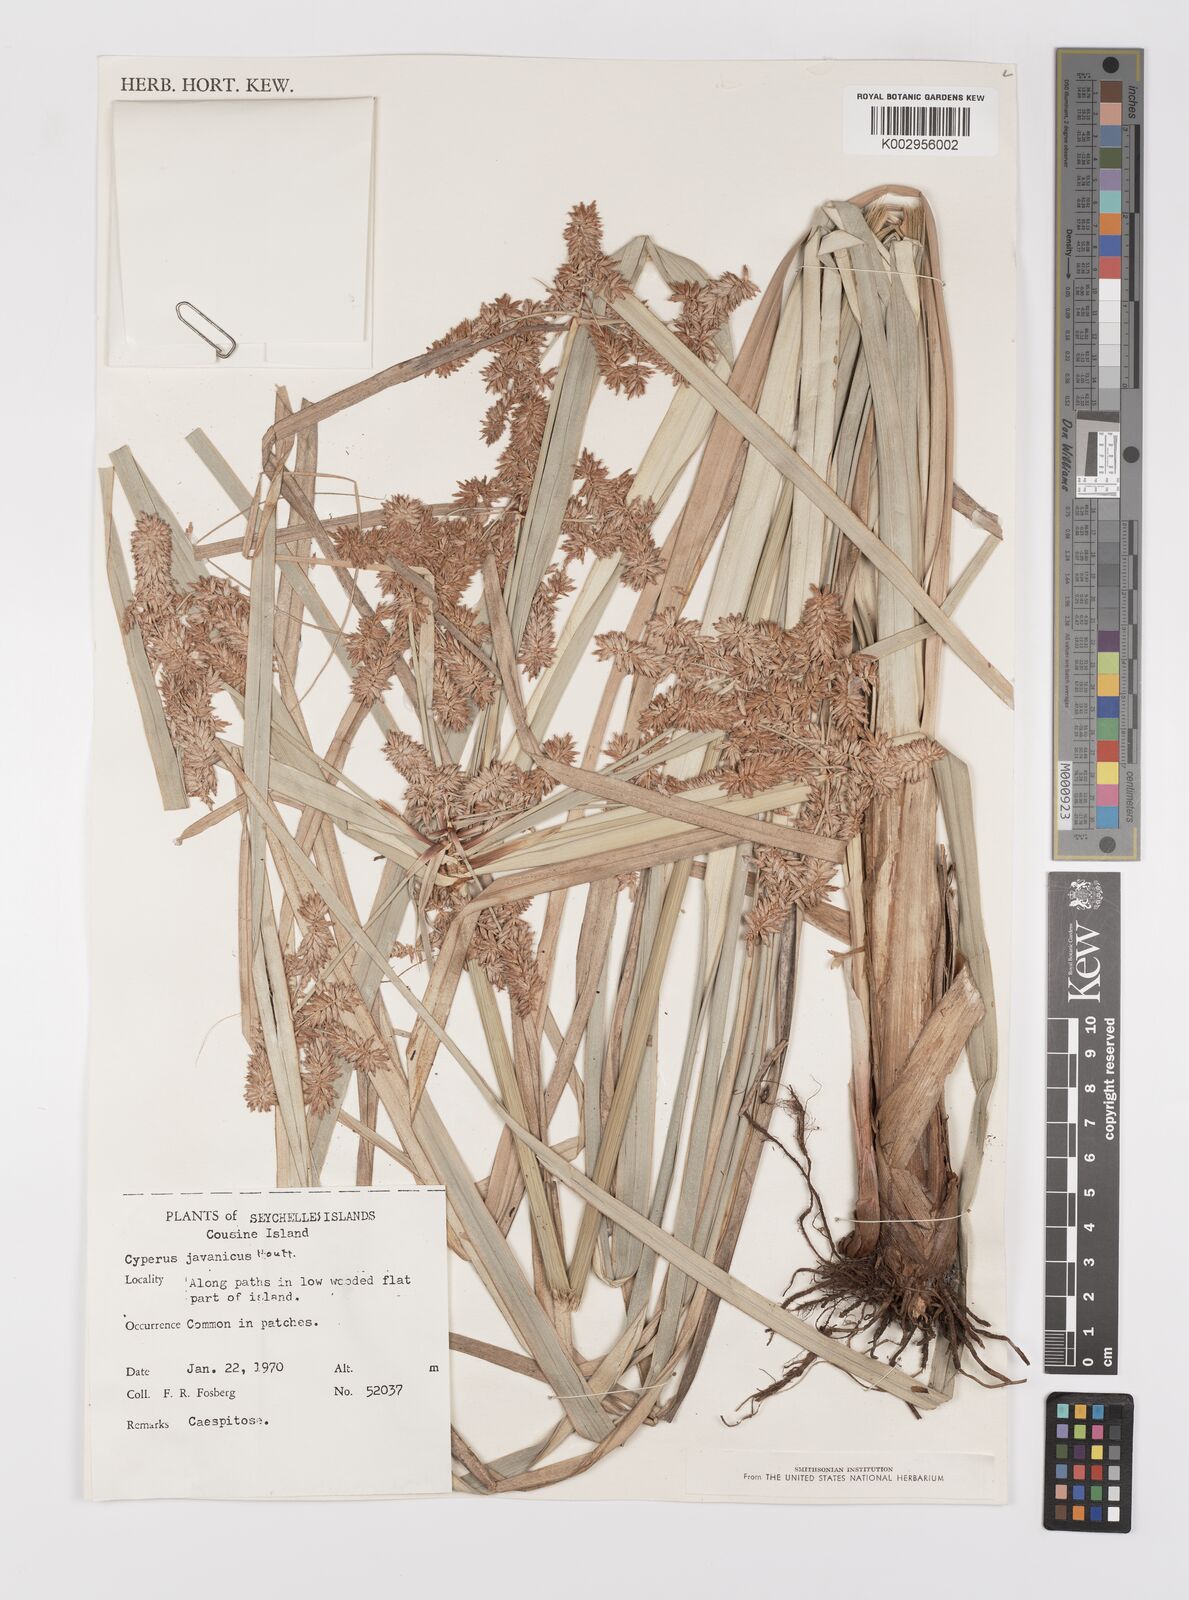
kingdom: Plantae
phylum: Tracheophyta
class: Liliopsida
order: Poales
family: Cyperaceae
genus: Cyperus
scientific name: Cyperus javanicus
